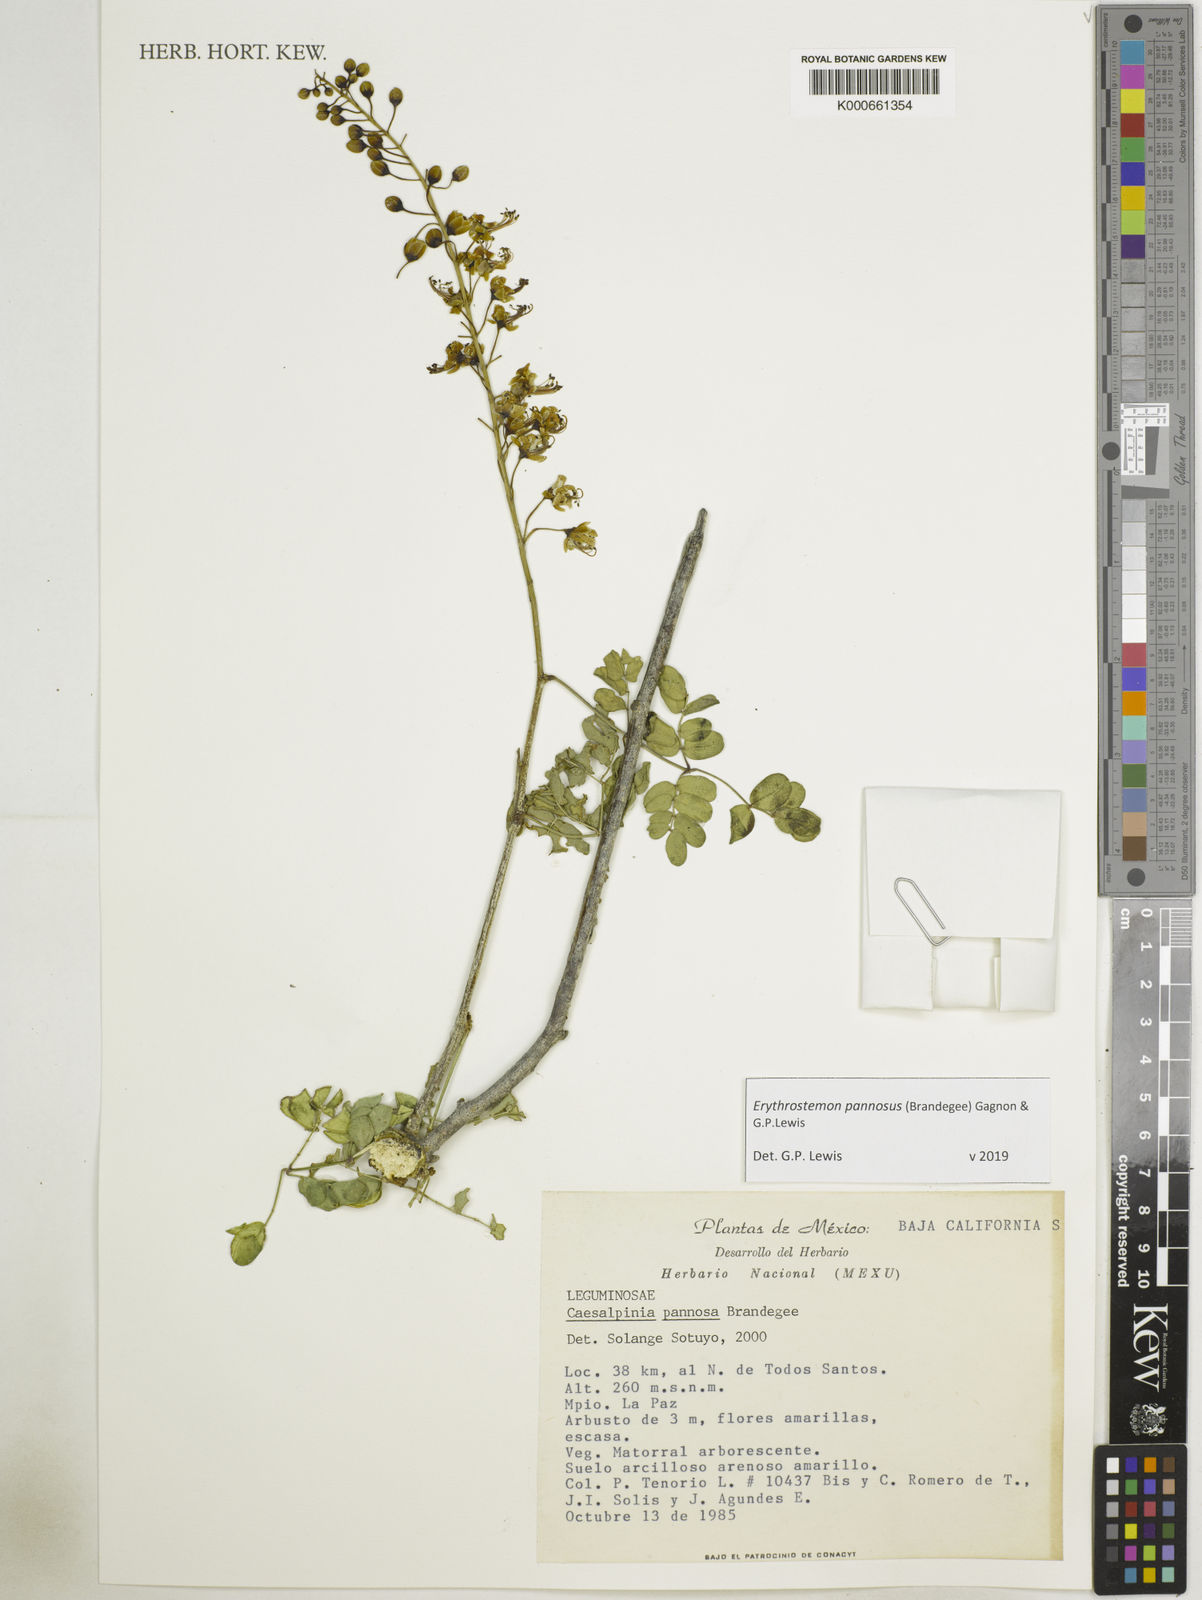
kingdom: Plantae
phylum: Tracheophyta
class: Magnoliopsida
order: Fabales
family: Fabaceae
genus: Erythrostemon
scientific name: Erythrostemon pannosus
